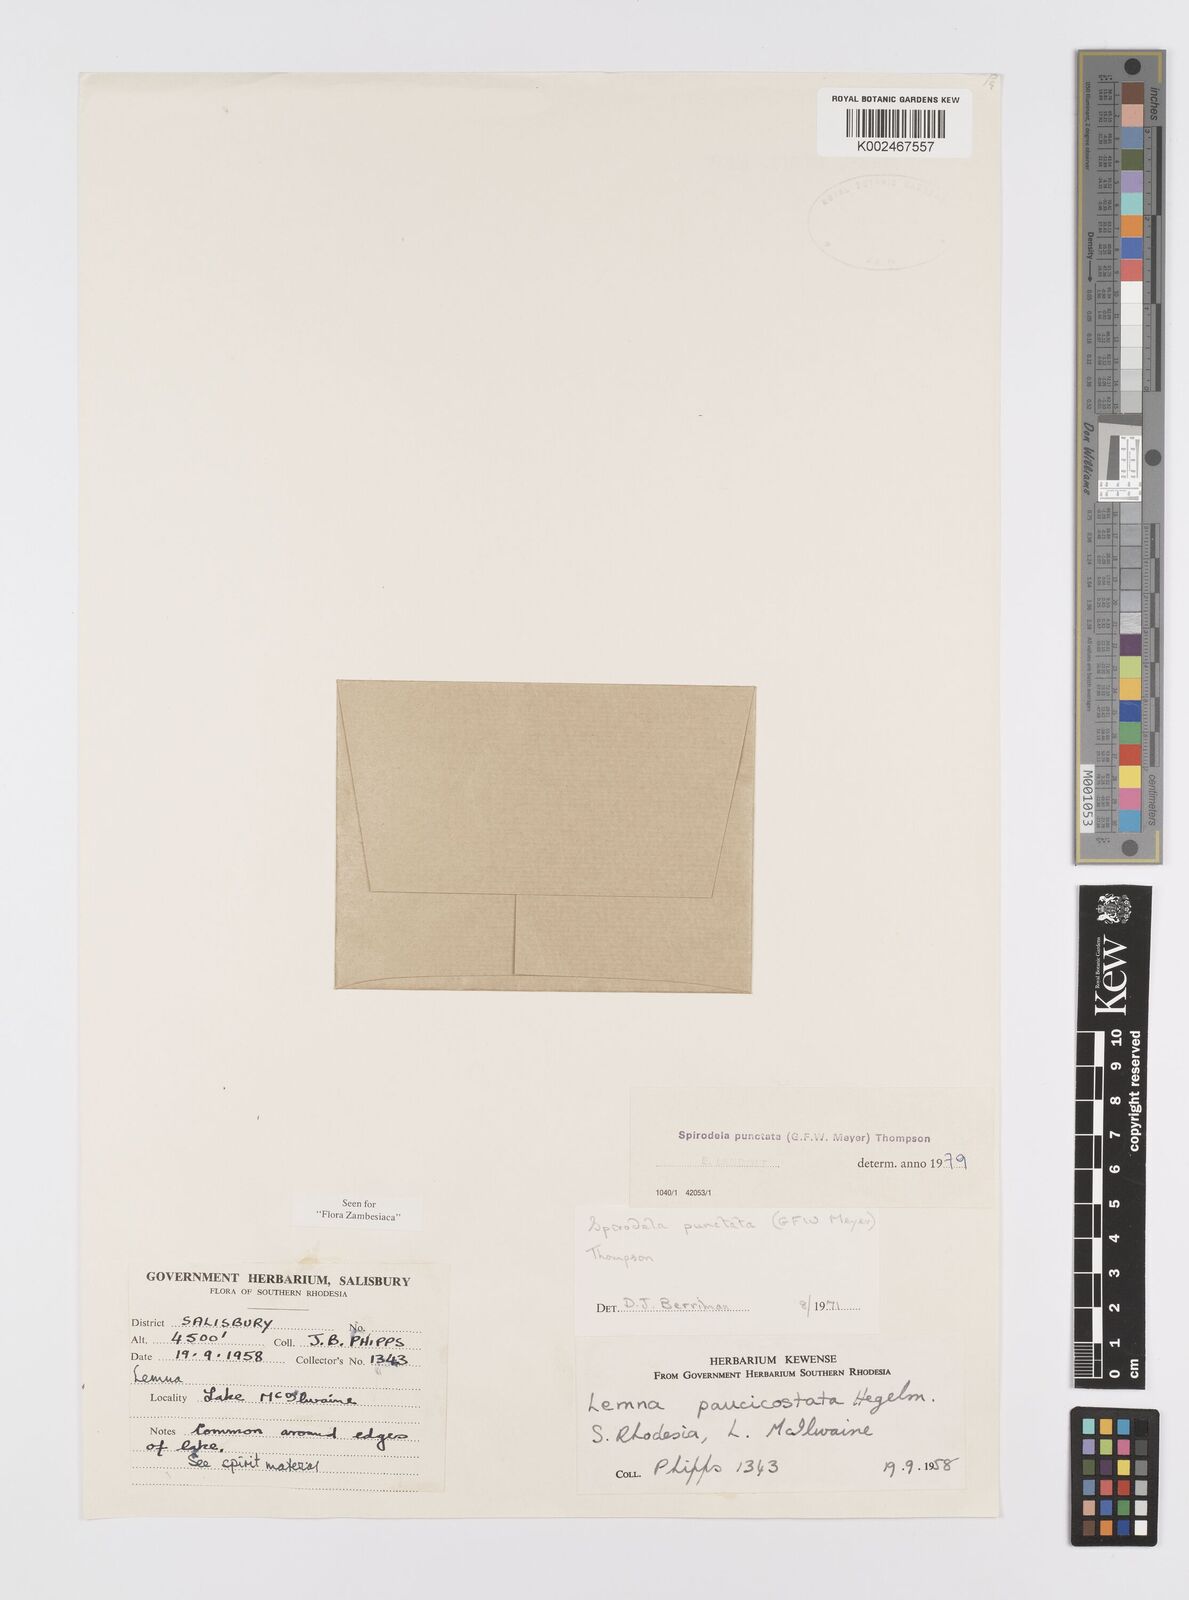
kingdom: Plantae
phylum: Tracheophyta
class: Liliopsida
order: Alismatales
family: Araceae
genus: Spirodela
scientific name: Spirodela punctata
